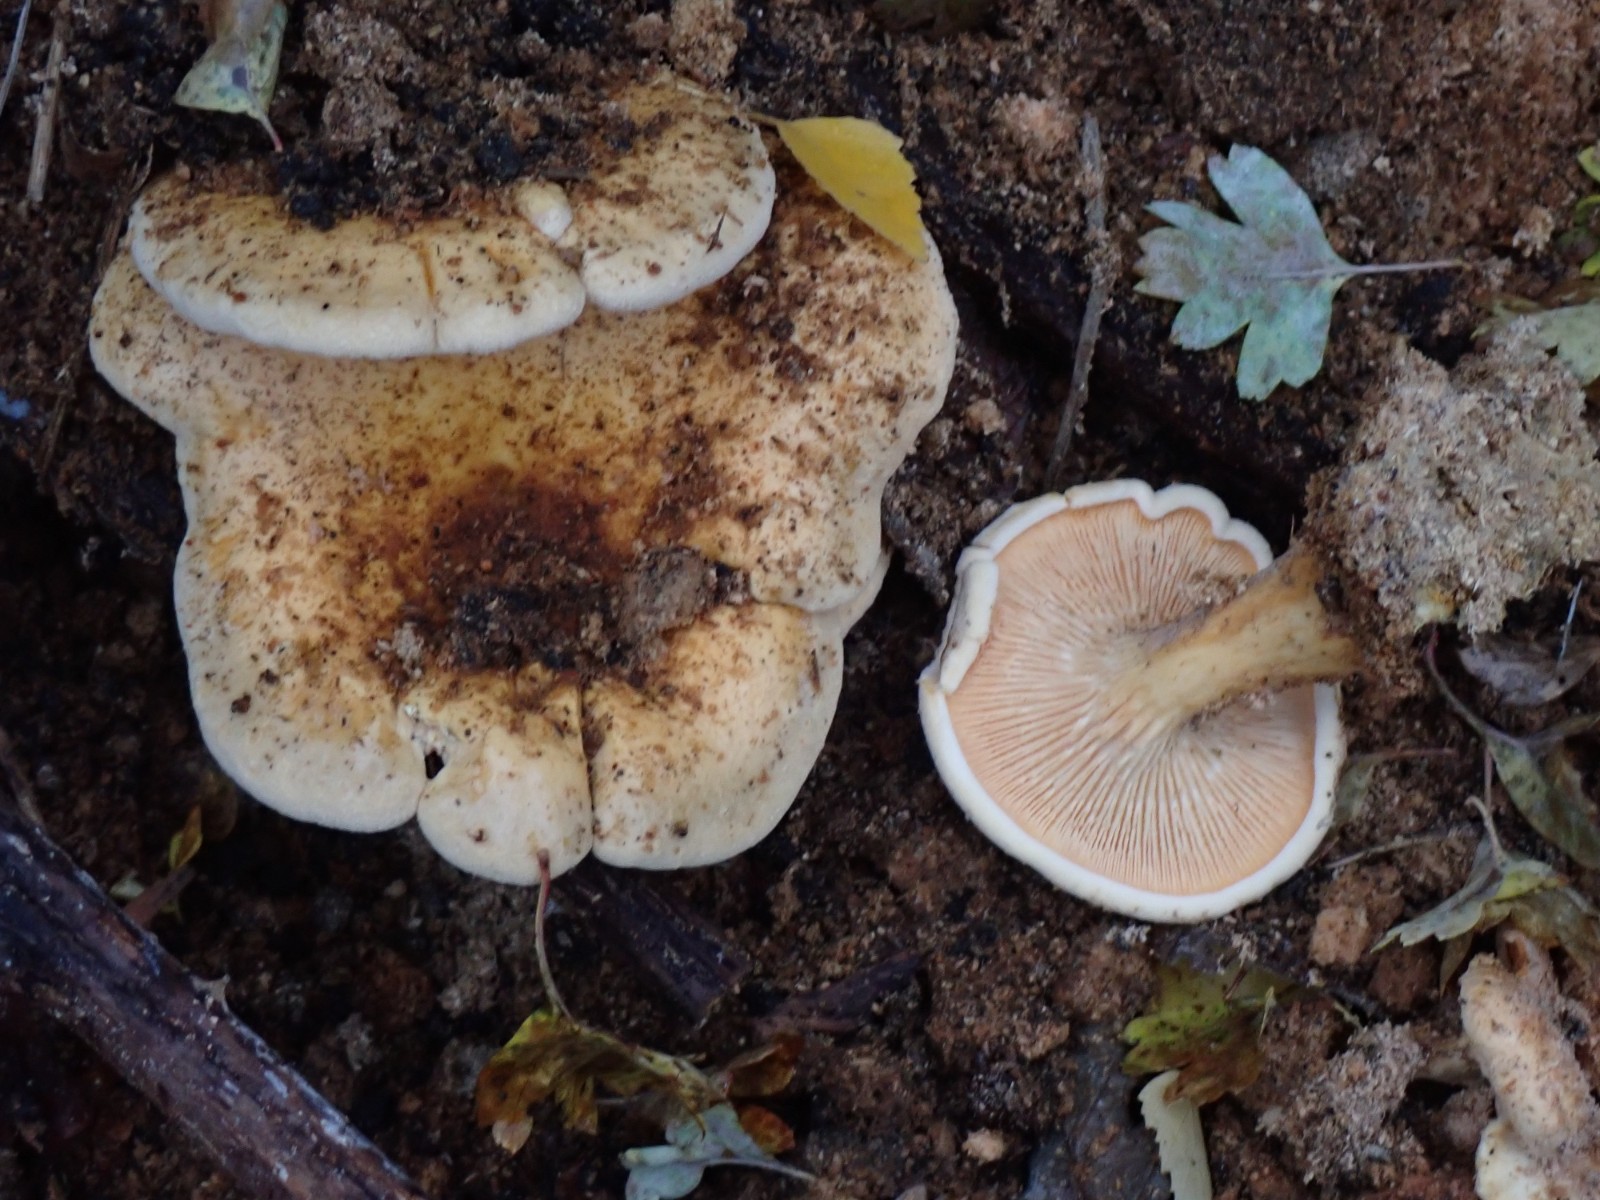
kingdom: Fungi
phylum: Basidiomycota
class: Agaricomycetes
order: Boletales
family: Hygrophoropsidaceae
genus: Hygrophoropsis
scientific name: Hygrophoropsis aurantiaca
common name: almindelig orangekantarel
